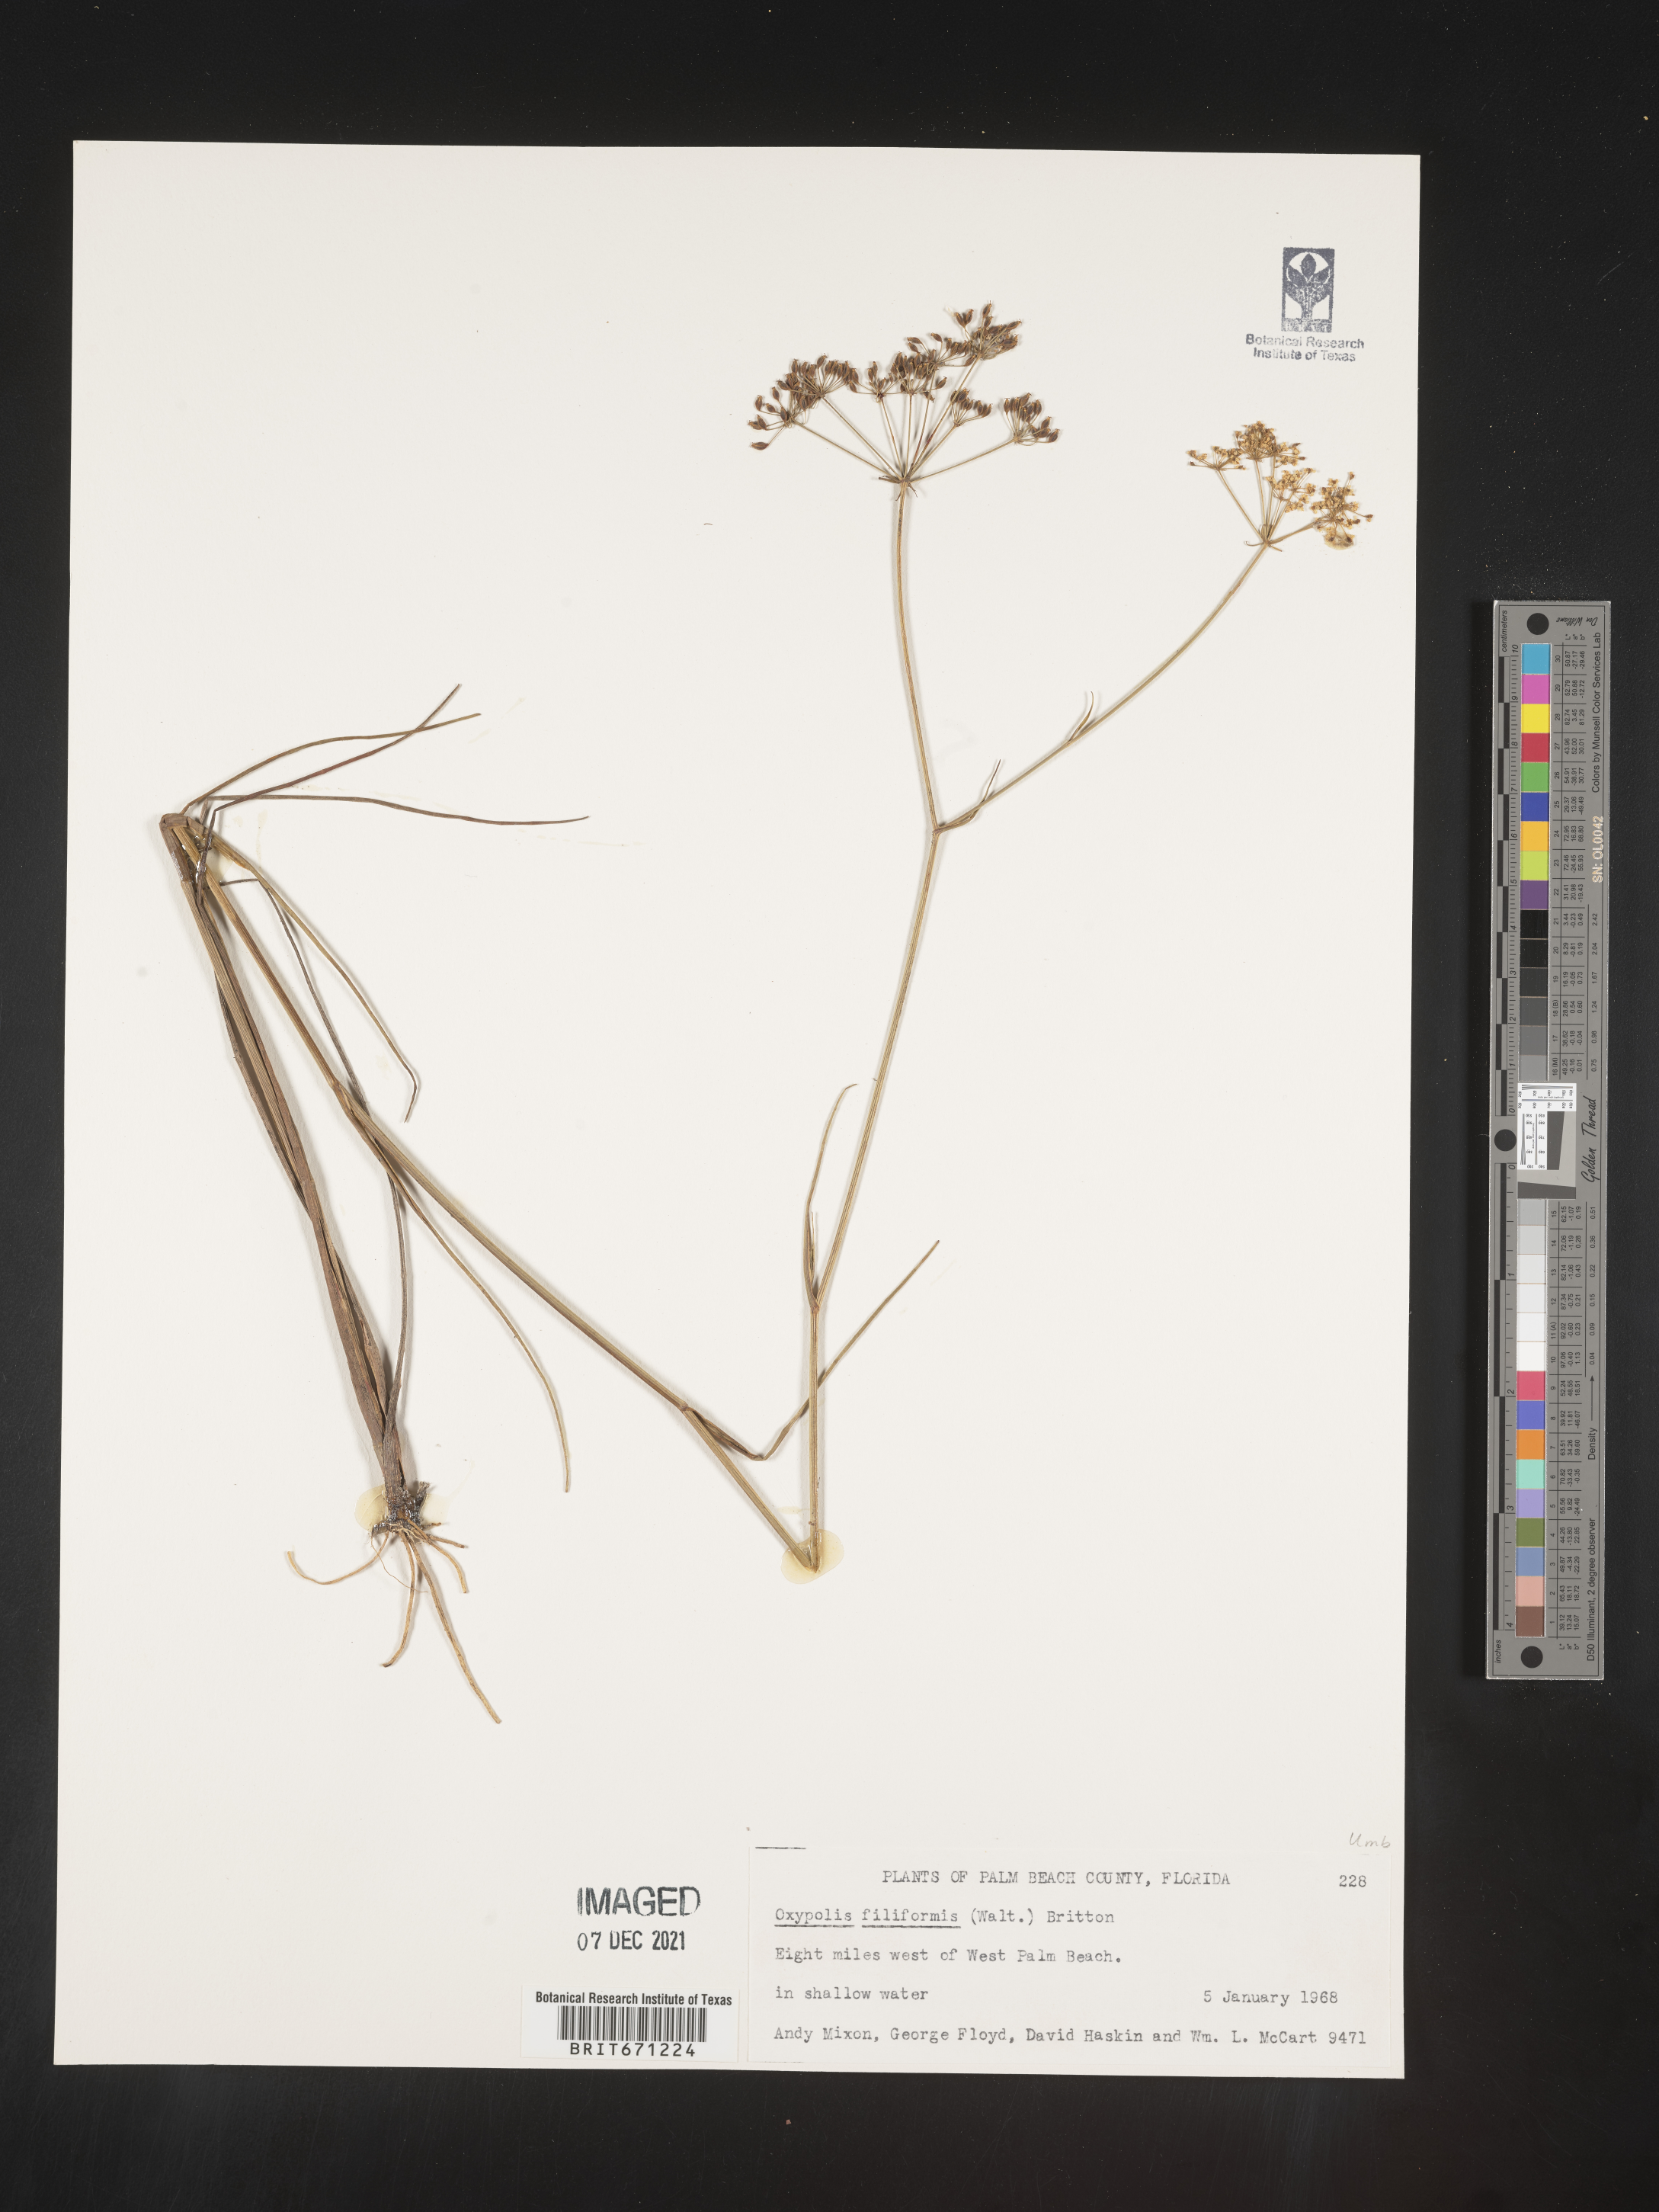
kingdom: Plantae
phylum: Tracheophyta
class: Magnoliopsida
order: Apiales
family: Apiaceae
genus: Tiedemannia
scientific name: Tiedemannia filiformis
